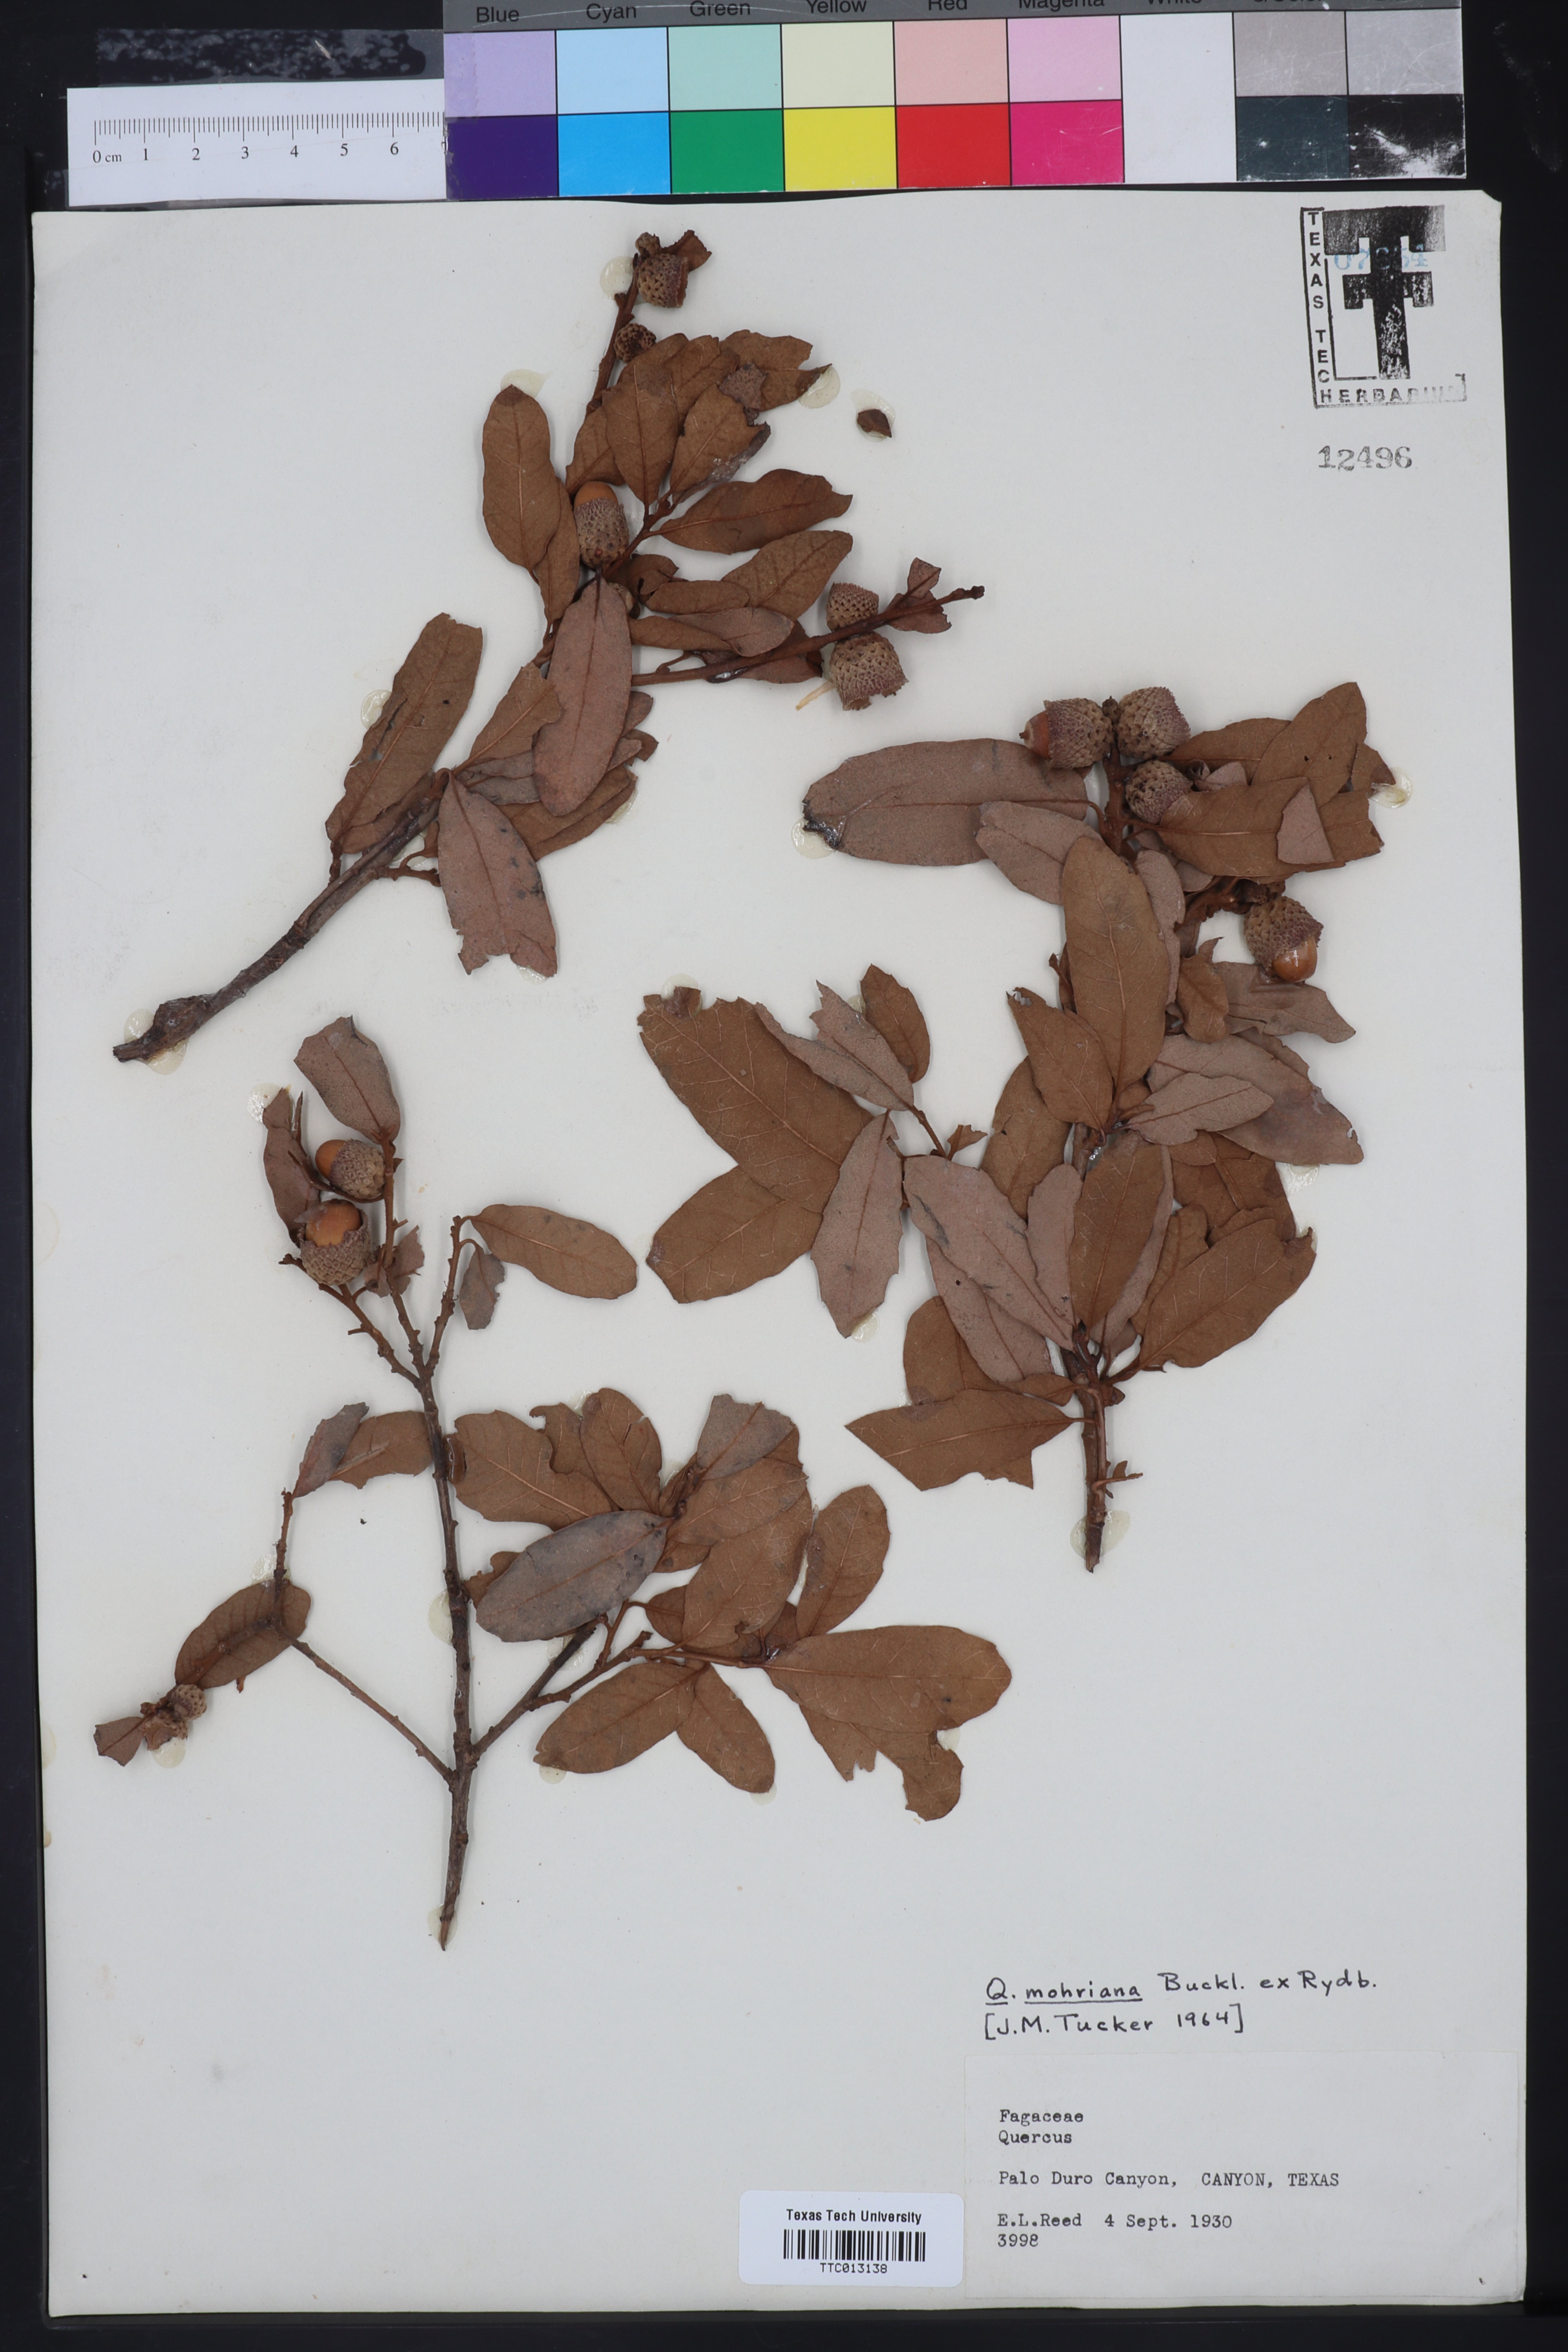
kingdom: Plantae
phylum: Tracheophyta
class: Magnoliopsida
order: Fagales
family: Fagaceae
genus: Quercus
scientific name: Quercus mohriana
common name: Mohr oak
